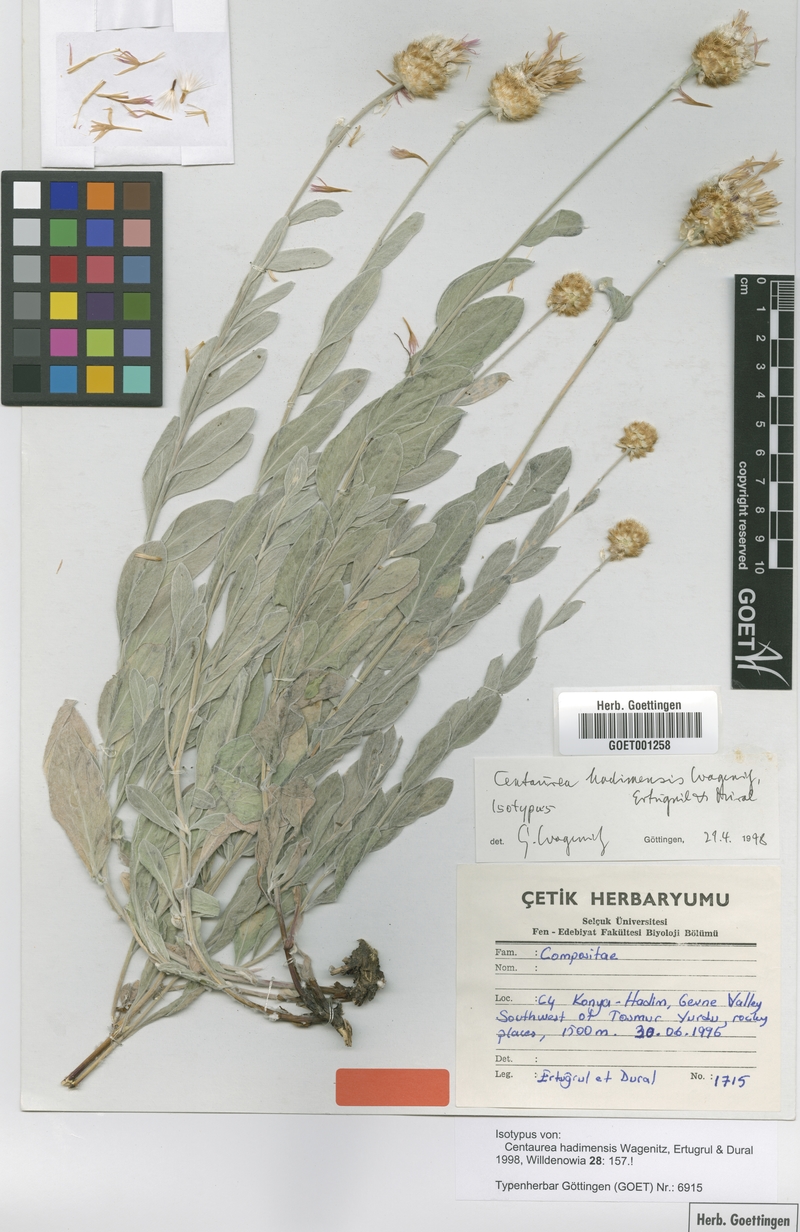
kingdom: Plantae
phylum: Tracheophyta
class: Magnoliopsida
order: Asterales
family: Asteraceae
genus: Psephellus
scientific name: Psephellus hadimensis
